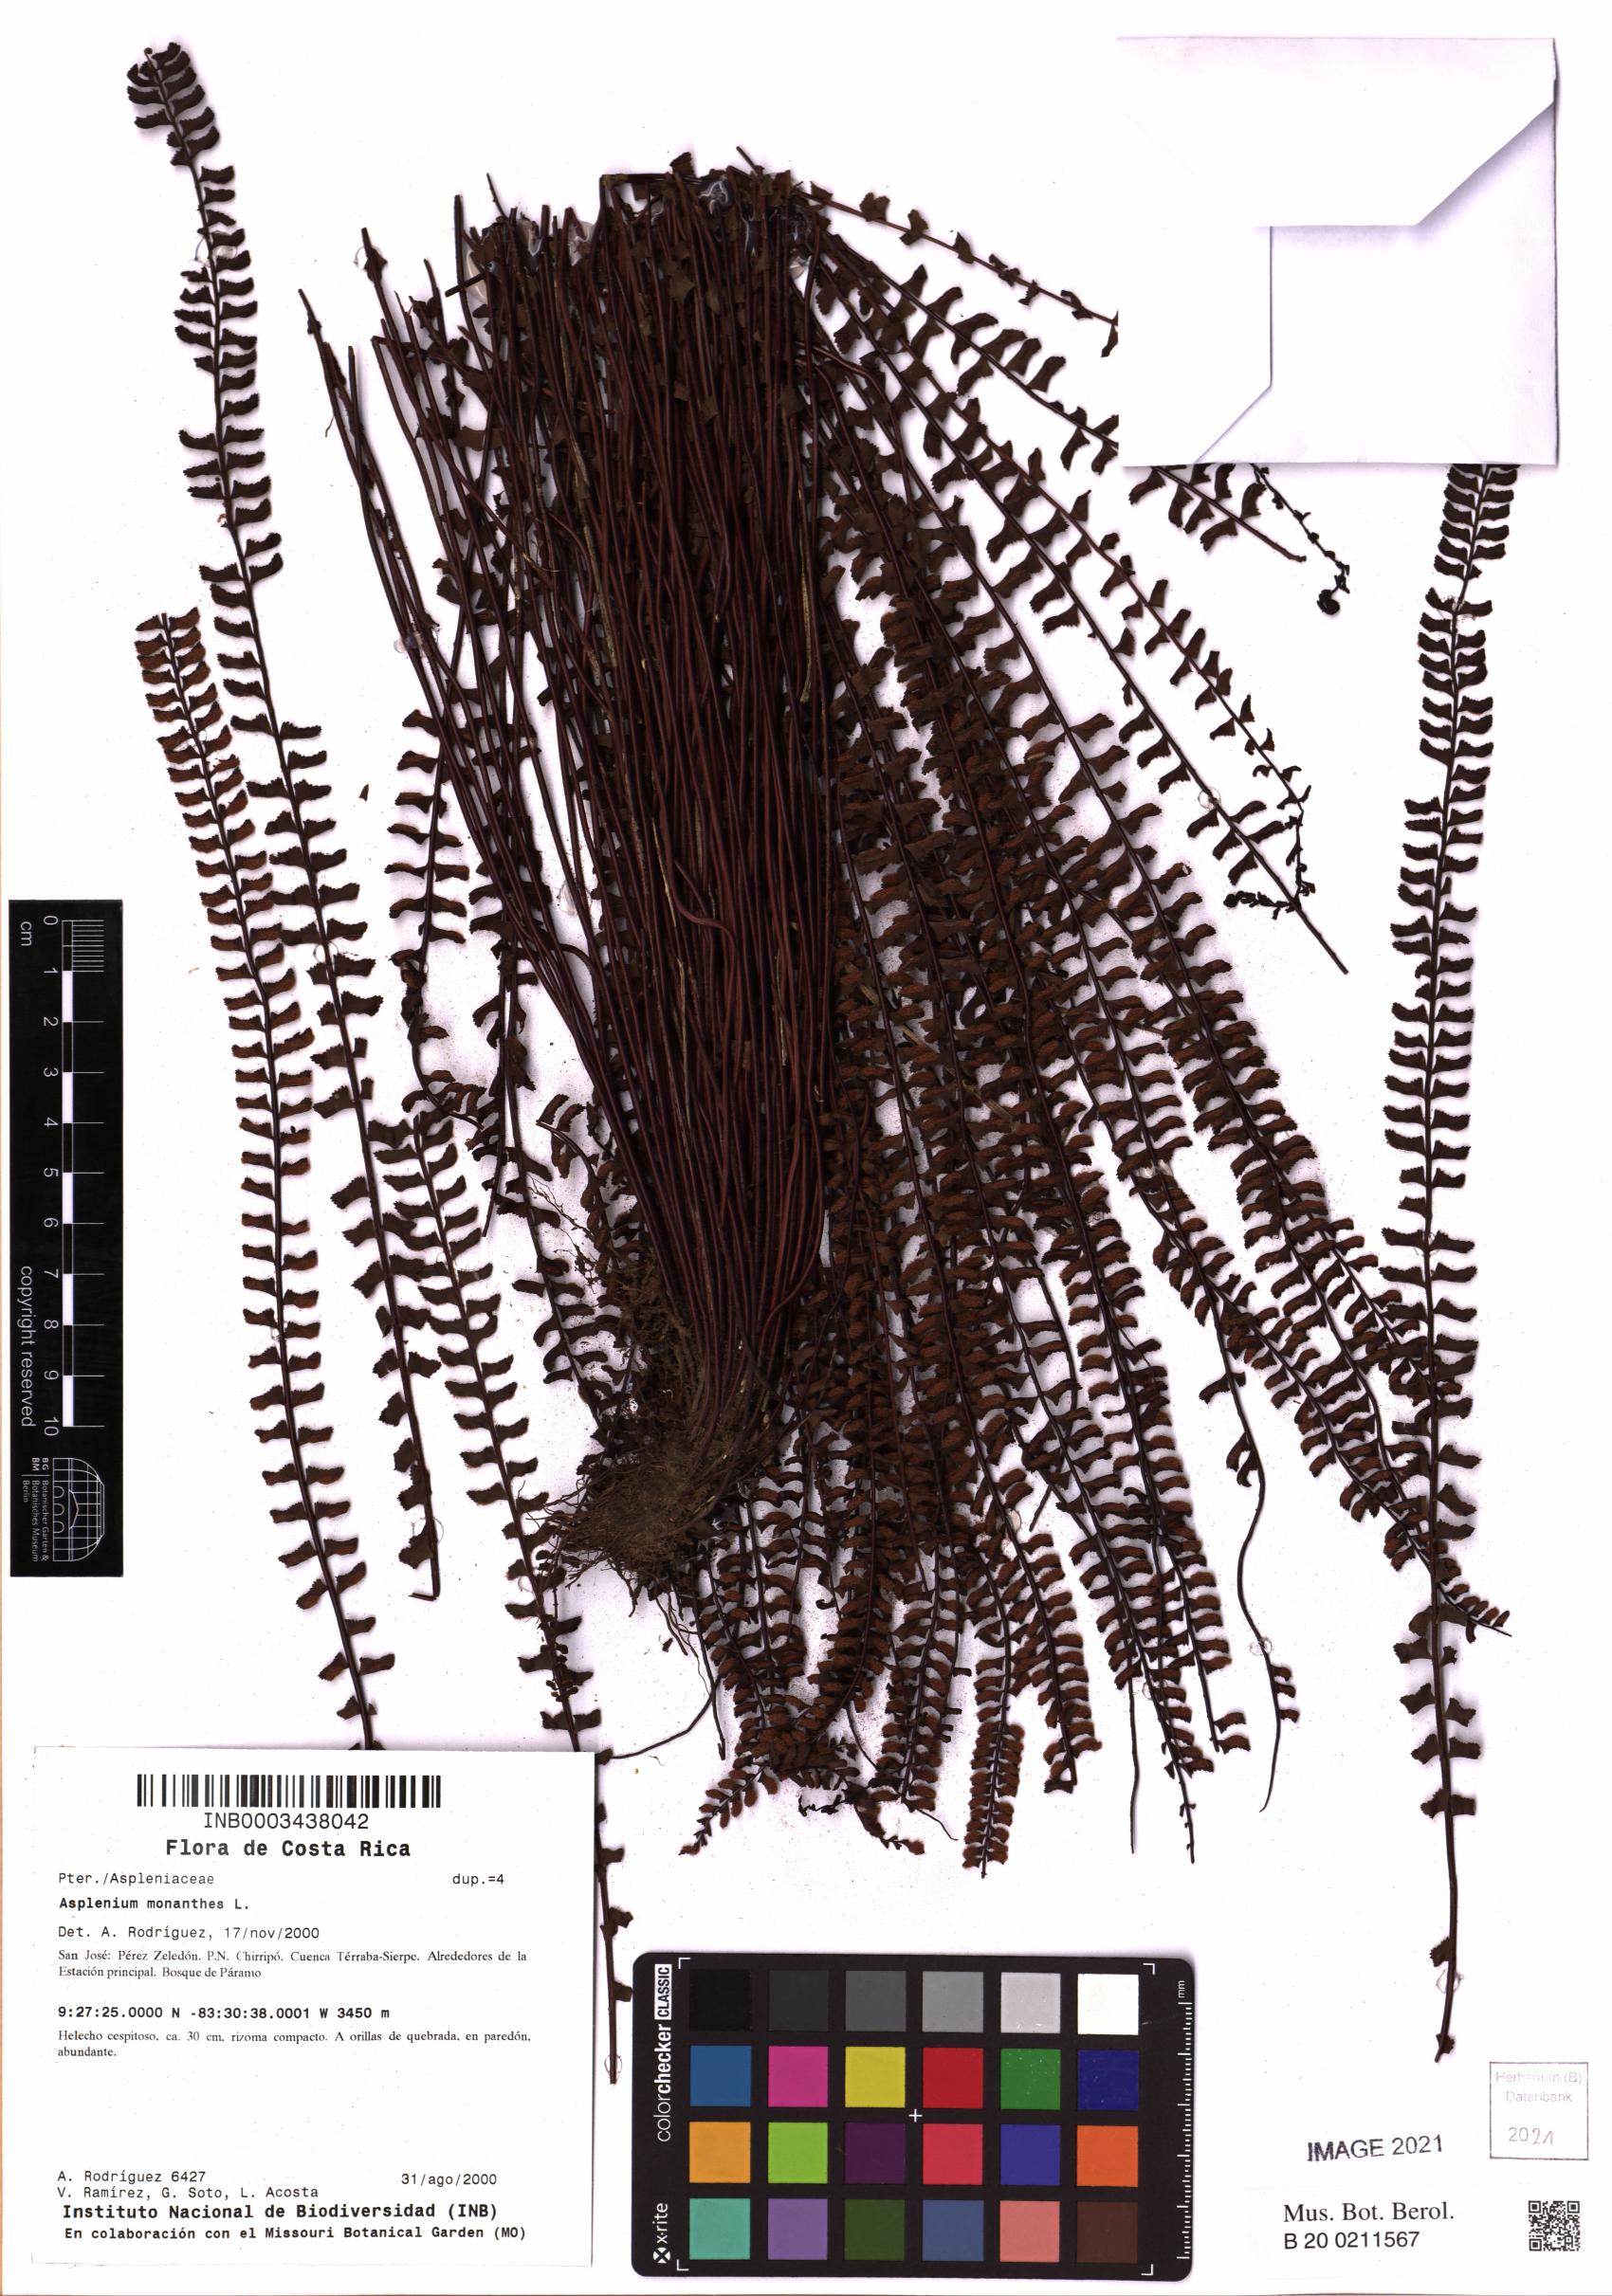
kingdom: Plantae
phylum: Tracheophyta
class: Polypodiopsida
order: Polypodiales
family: Aspleniaceae
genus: Asplenium
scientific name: Asplenium monanthes
